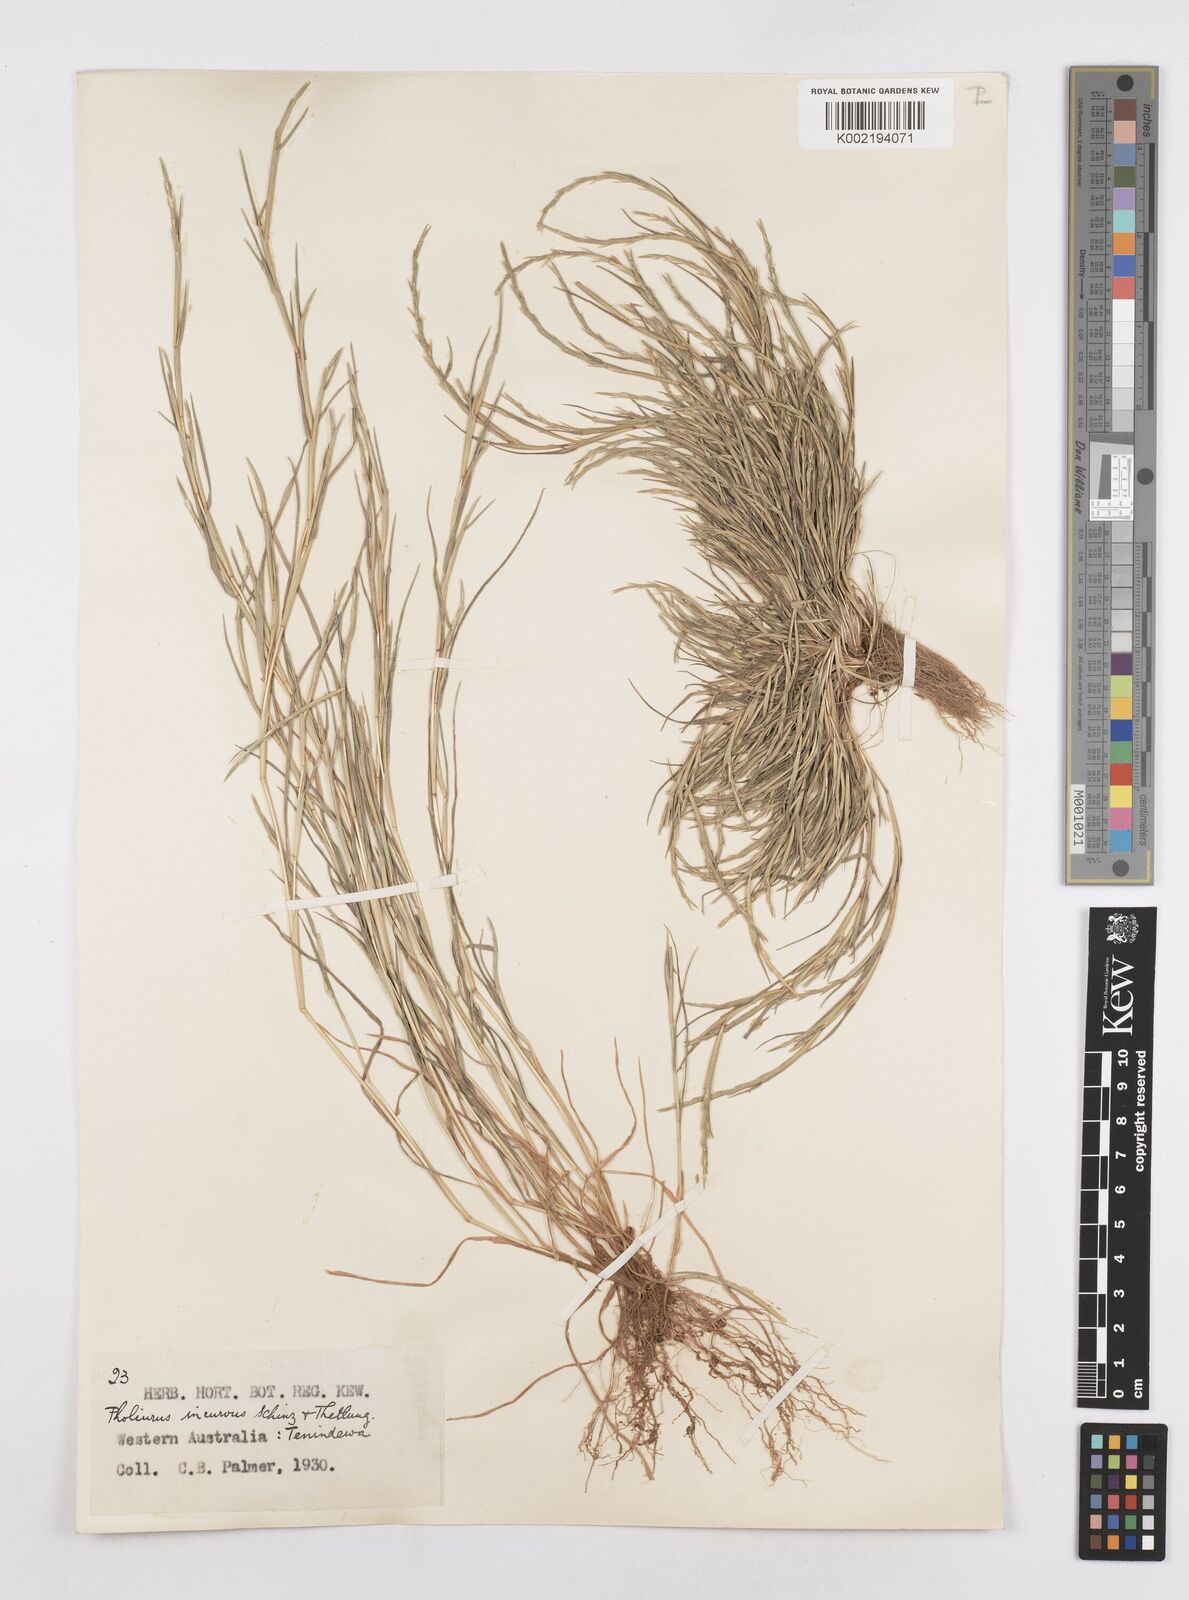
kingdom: Plantae
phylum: Tracheophyta
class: Liliopsida
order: Poales
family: Poaceae
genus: Parapholis
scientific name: Parapholis incurva
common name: Curved sicklegrass
